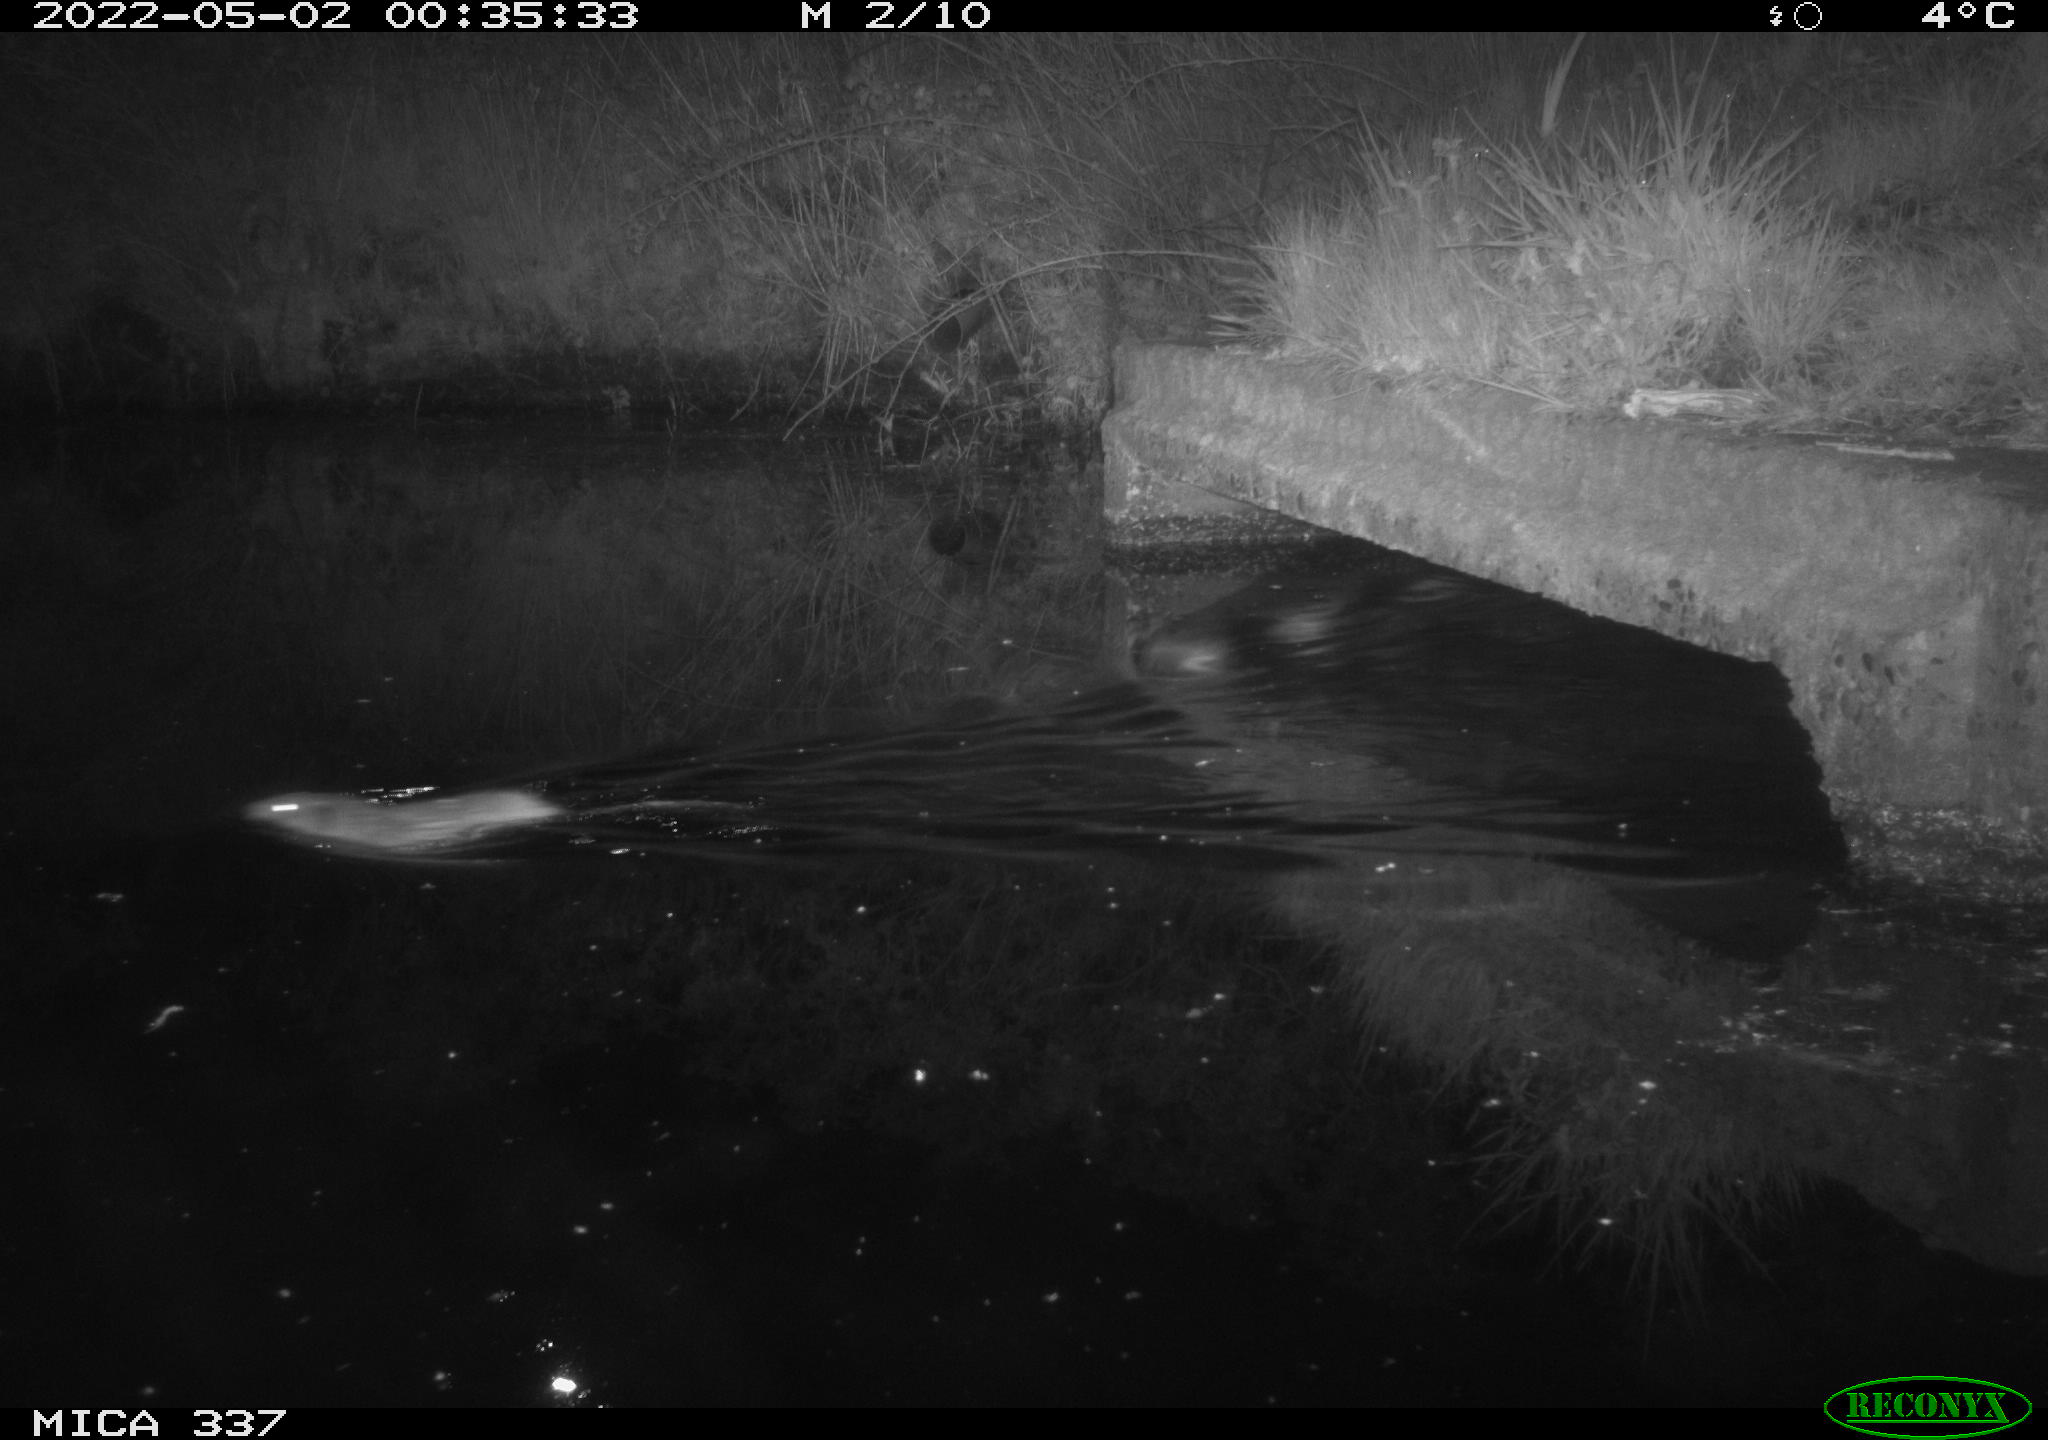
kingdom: Animalia
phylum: Chordata
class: Mammalia
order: Rodentia
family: Cricetidae
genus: Ondatra
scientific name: Ondatra zibethicus
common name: Muskrat
